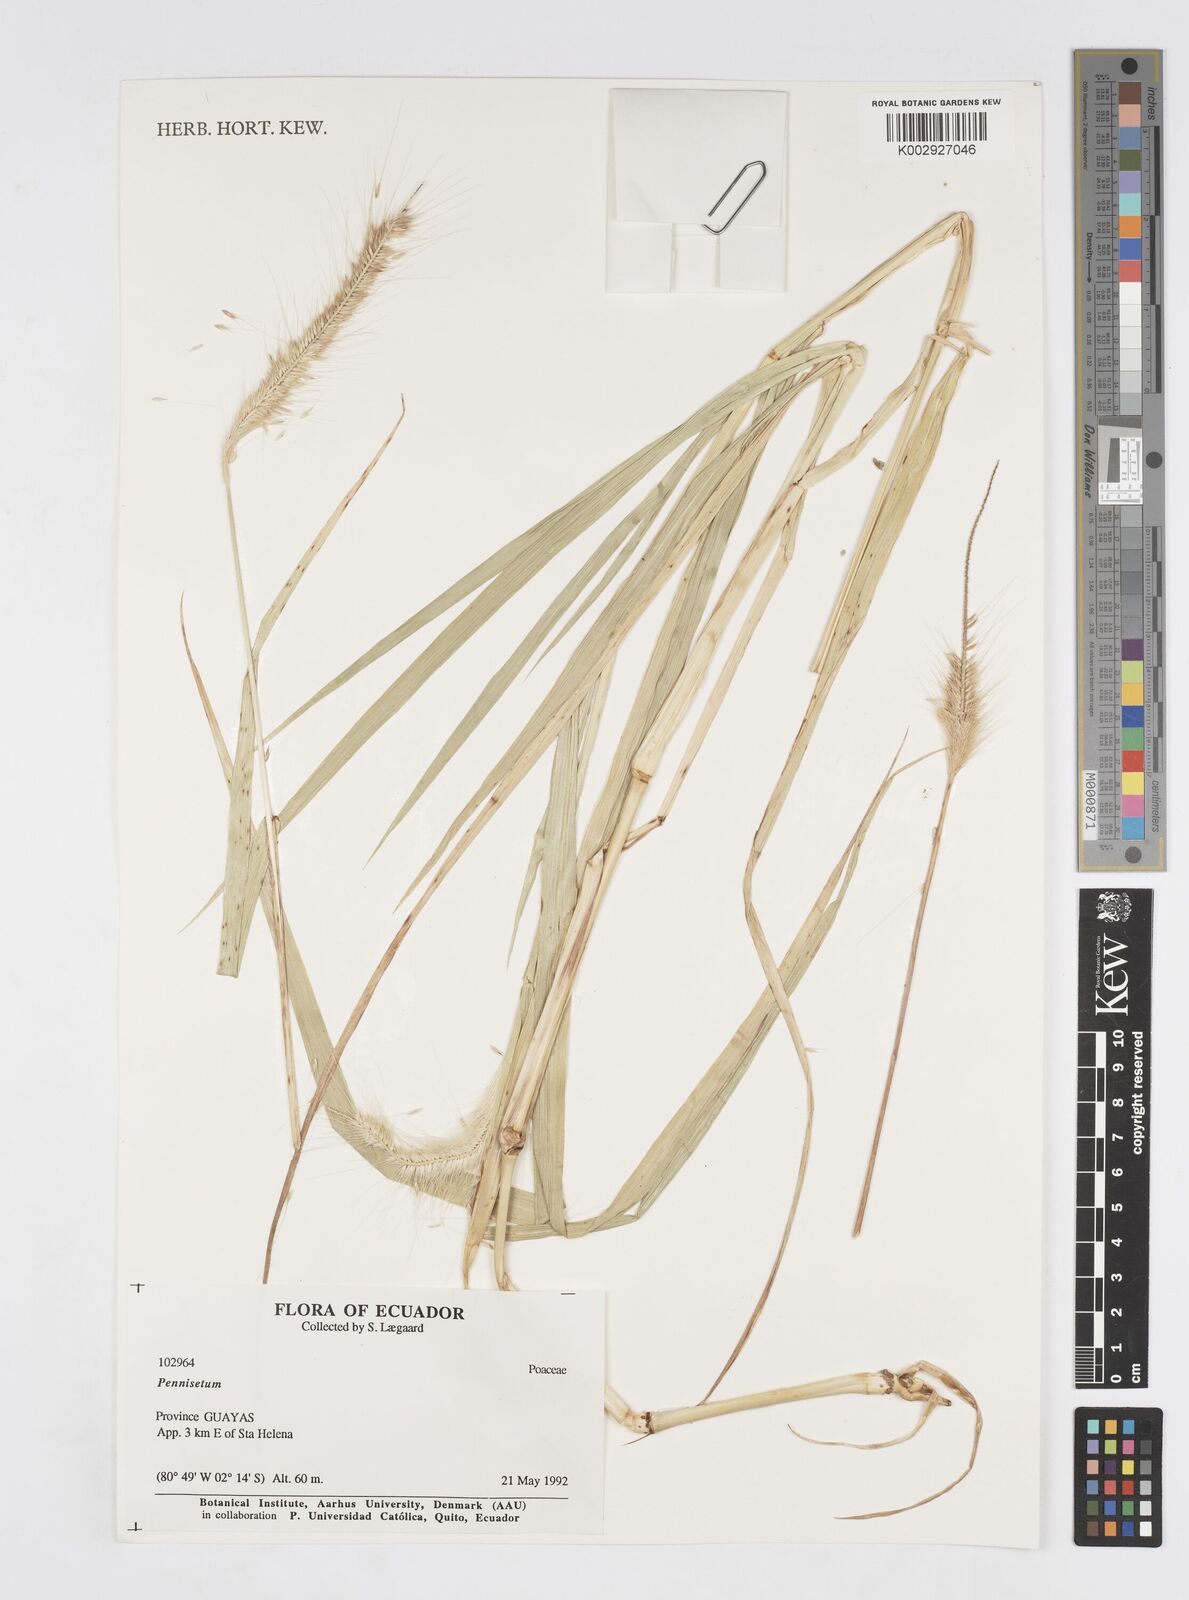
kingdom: Plantae
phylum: Tracheophyta
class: Liliopsida
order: Poales
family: Poaceae
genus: Cenchrus
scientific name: Cenchrus occidentalis
